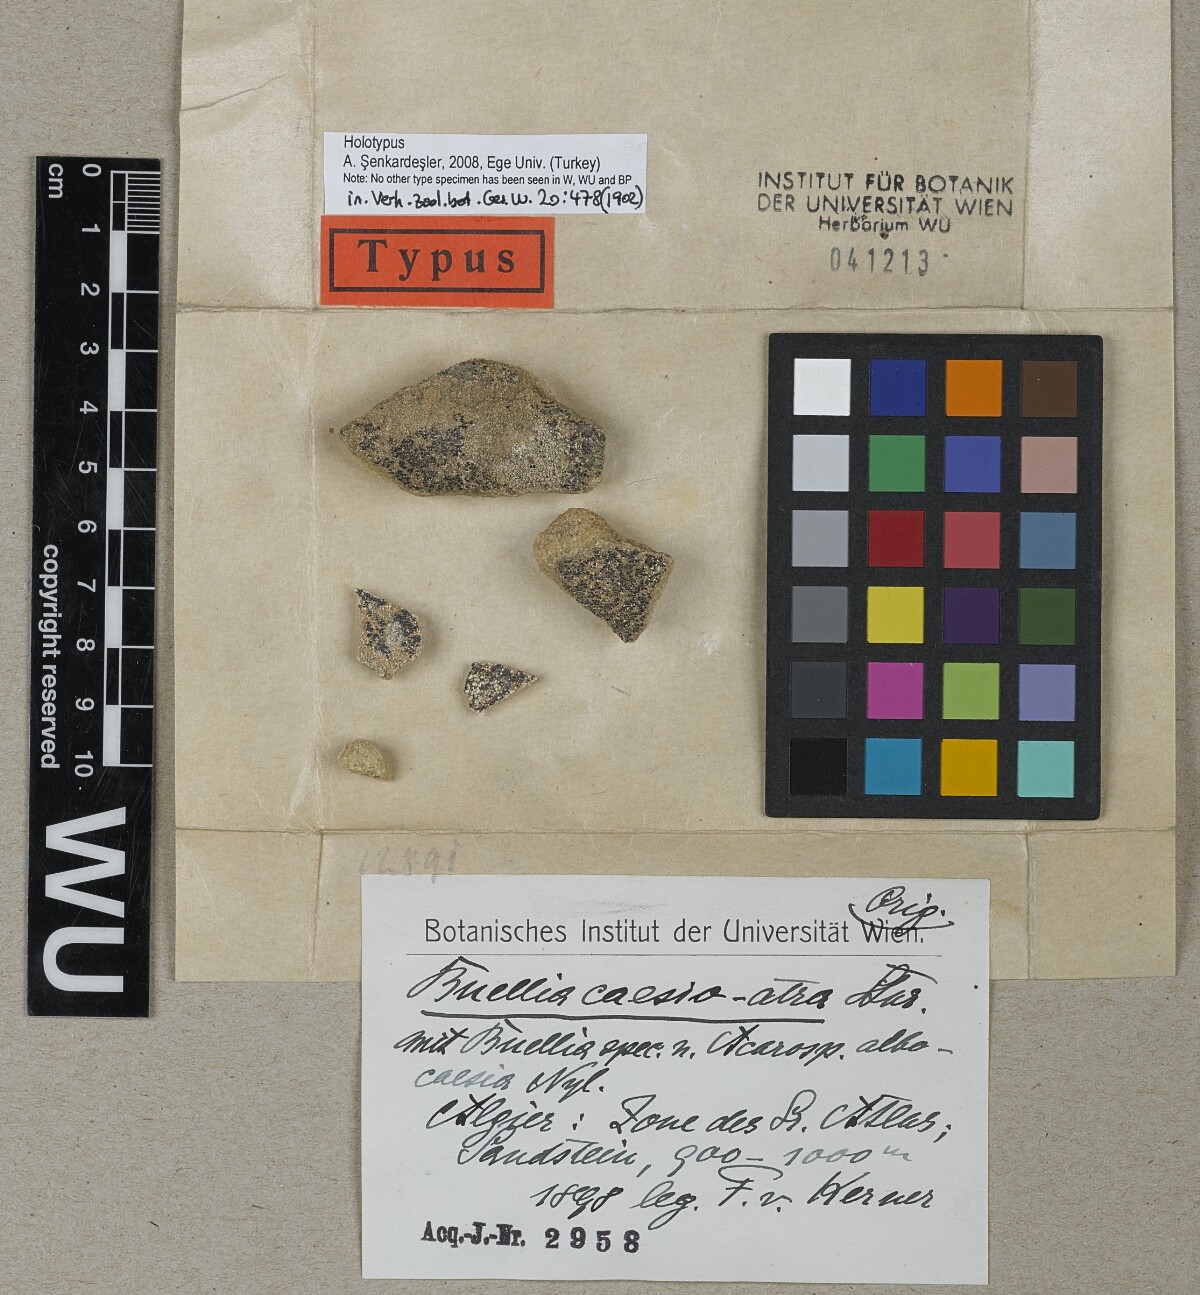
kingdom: Fungi
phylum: Ascomycota
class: Lecanoromycetes
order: Caliciales
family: Physciaceae
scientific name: Physciaceae
